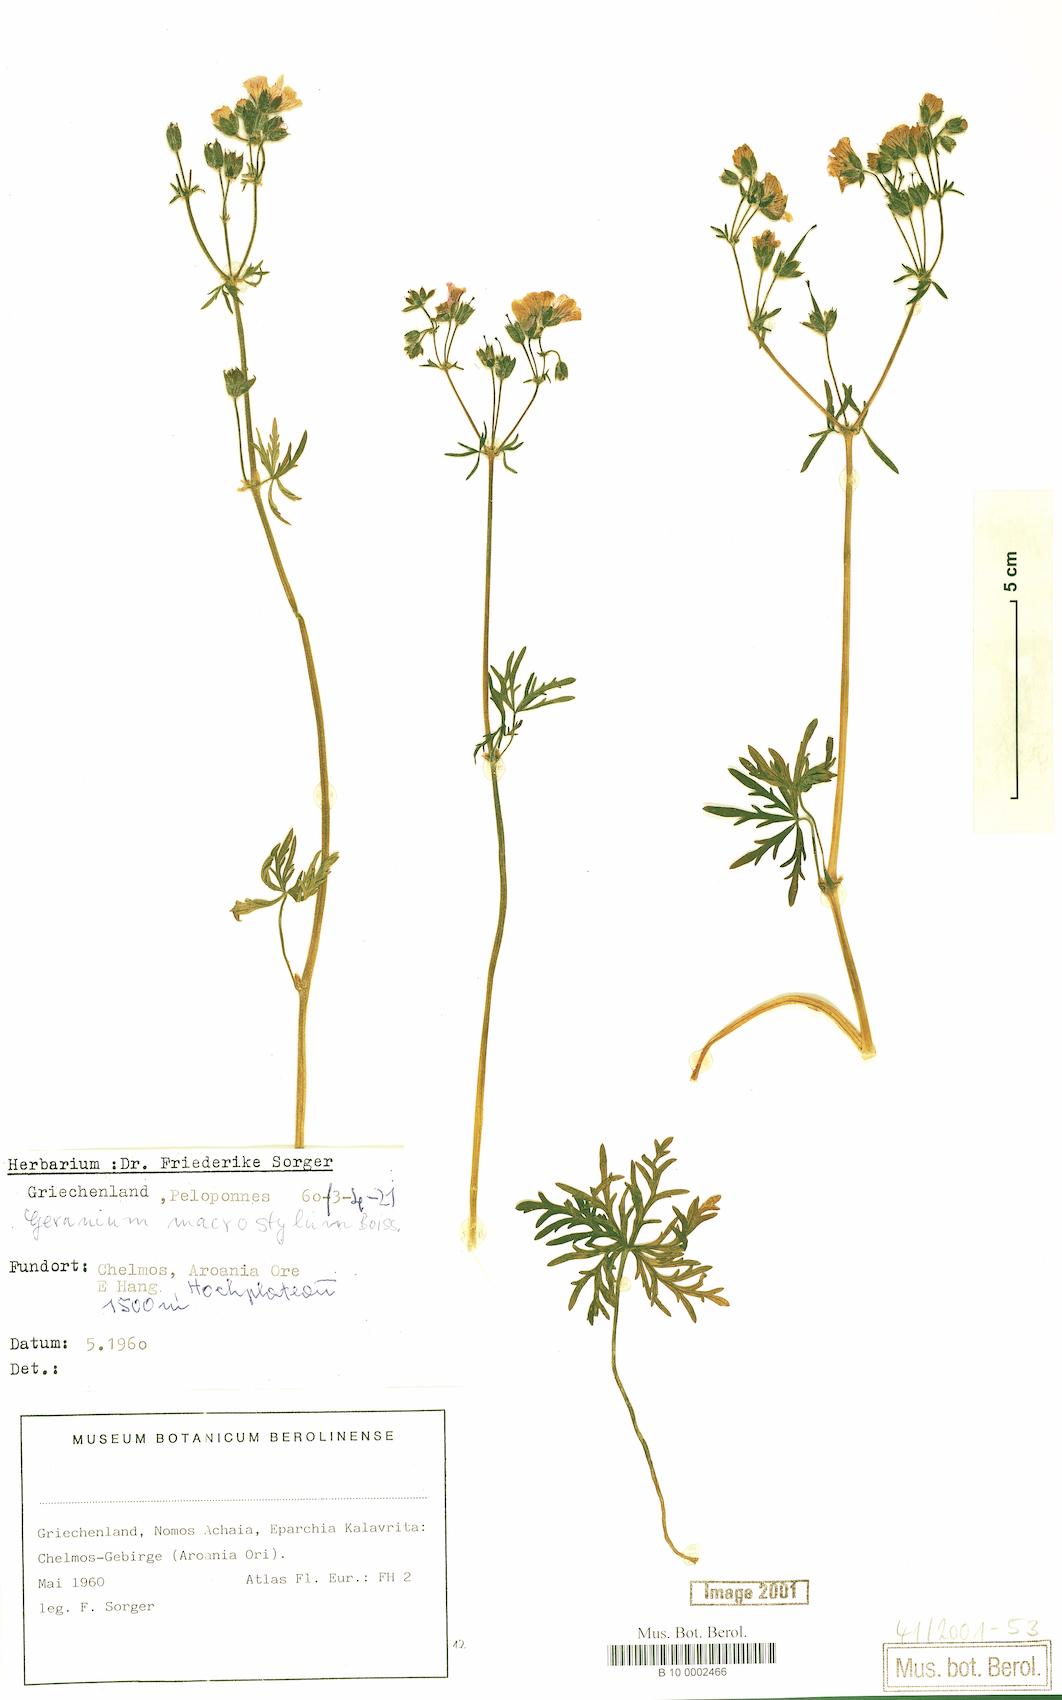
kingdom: Plantae
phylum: Tracheophyta
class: Magnoliopsida
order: Geraniales
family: Geraniaceae
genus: Geranium
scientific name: Geranium macrostylum
